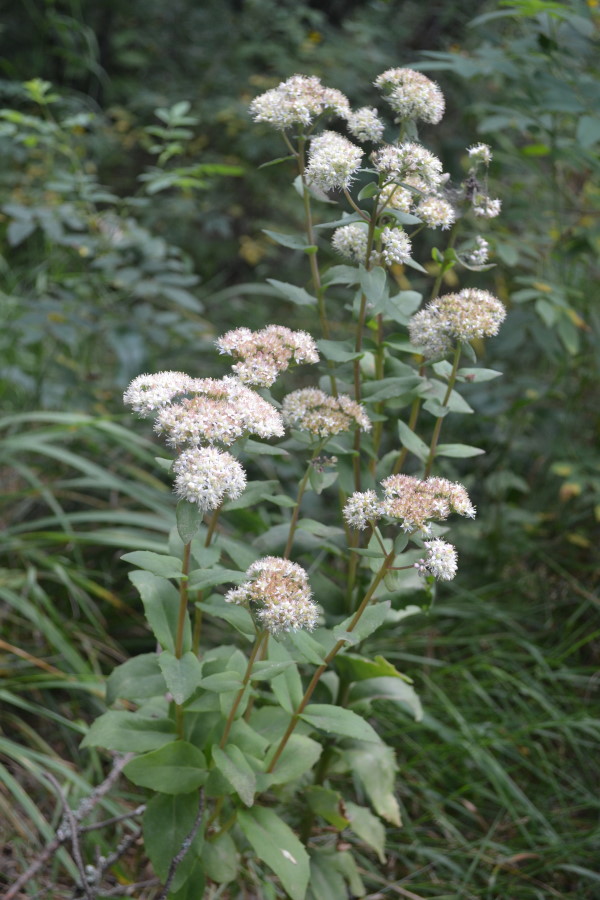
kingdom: Plantae
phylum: Tracheophyta
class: Magnoliopsida
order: Saxifragales
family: Crassulaceae
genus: Hylotelephium
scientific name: Hylotelephium telephium
